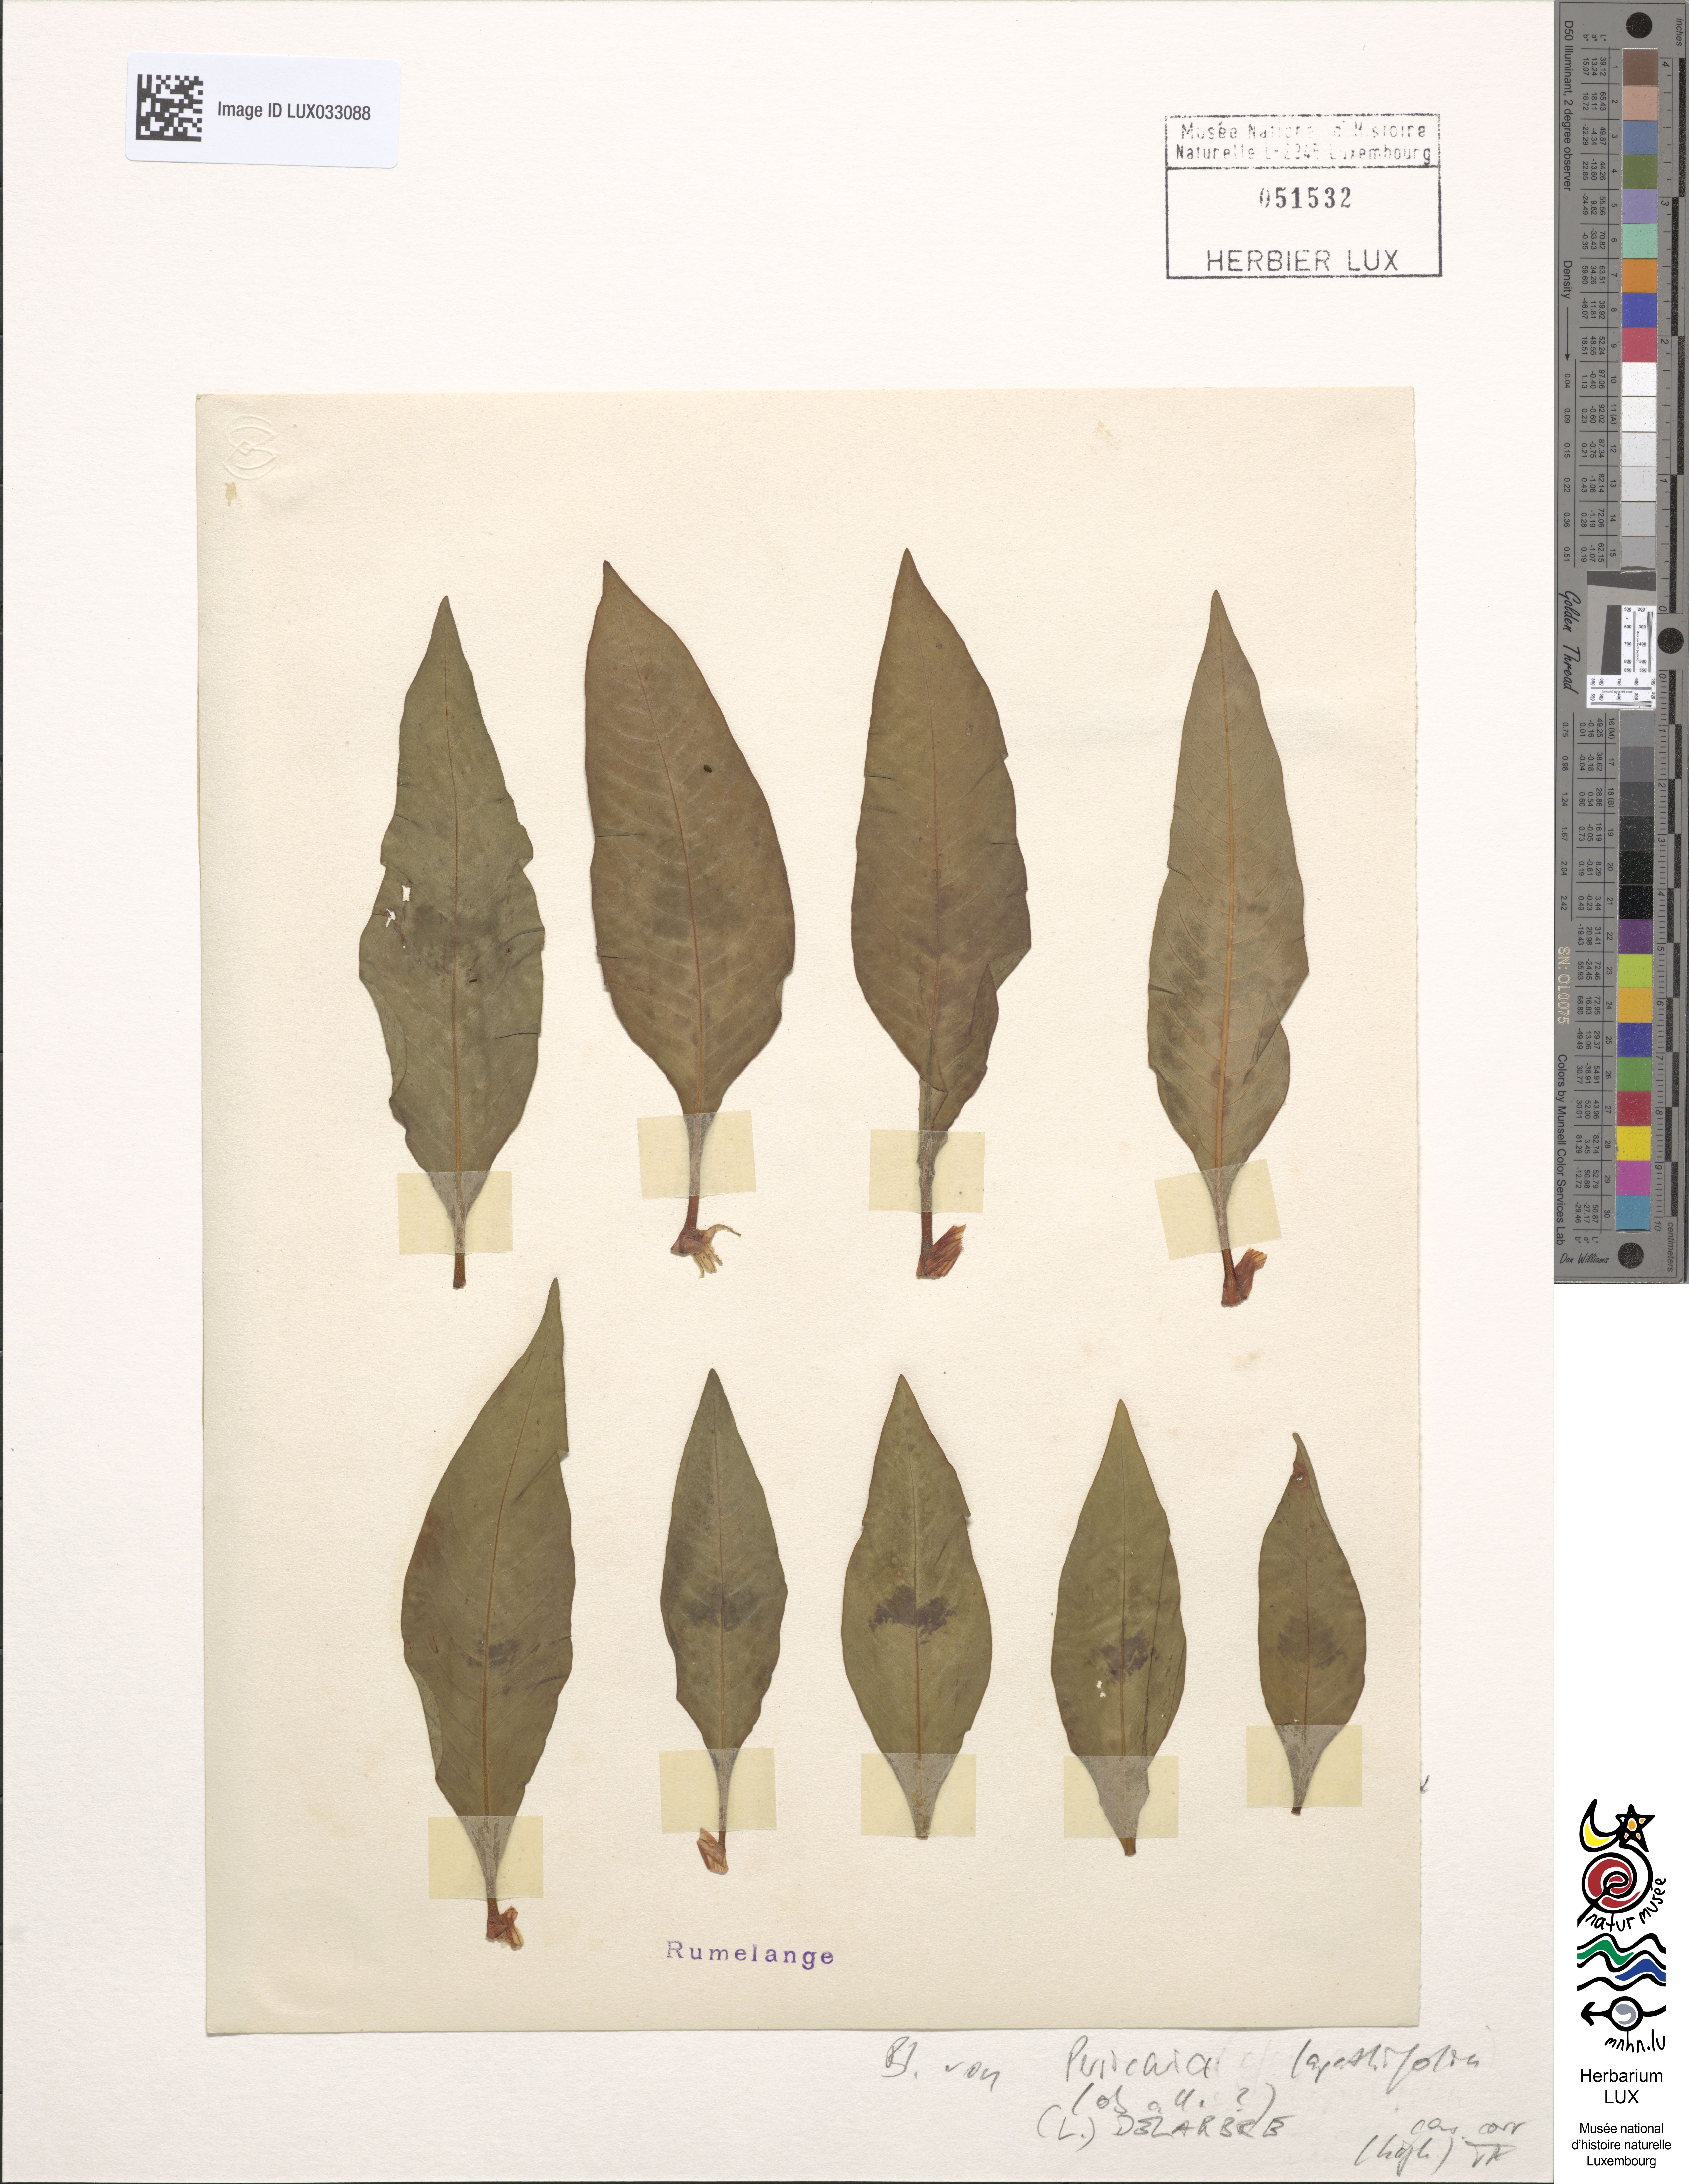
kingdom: Plantae
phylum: Tracheophyta
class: Magnoliopsida
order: Caryophyllales
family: Polygonaceae
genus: Persicaria
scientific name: Persicaria lapathifolia
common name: Curlytop knotweed
